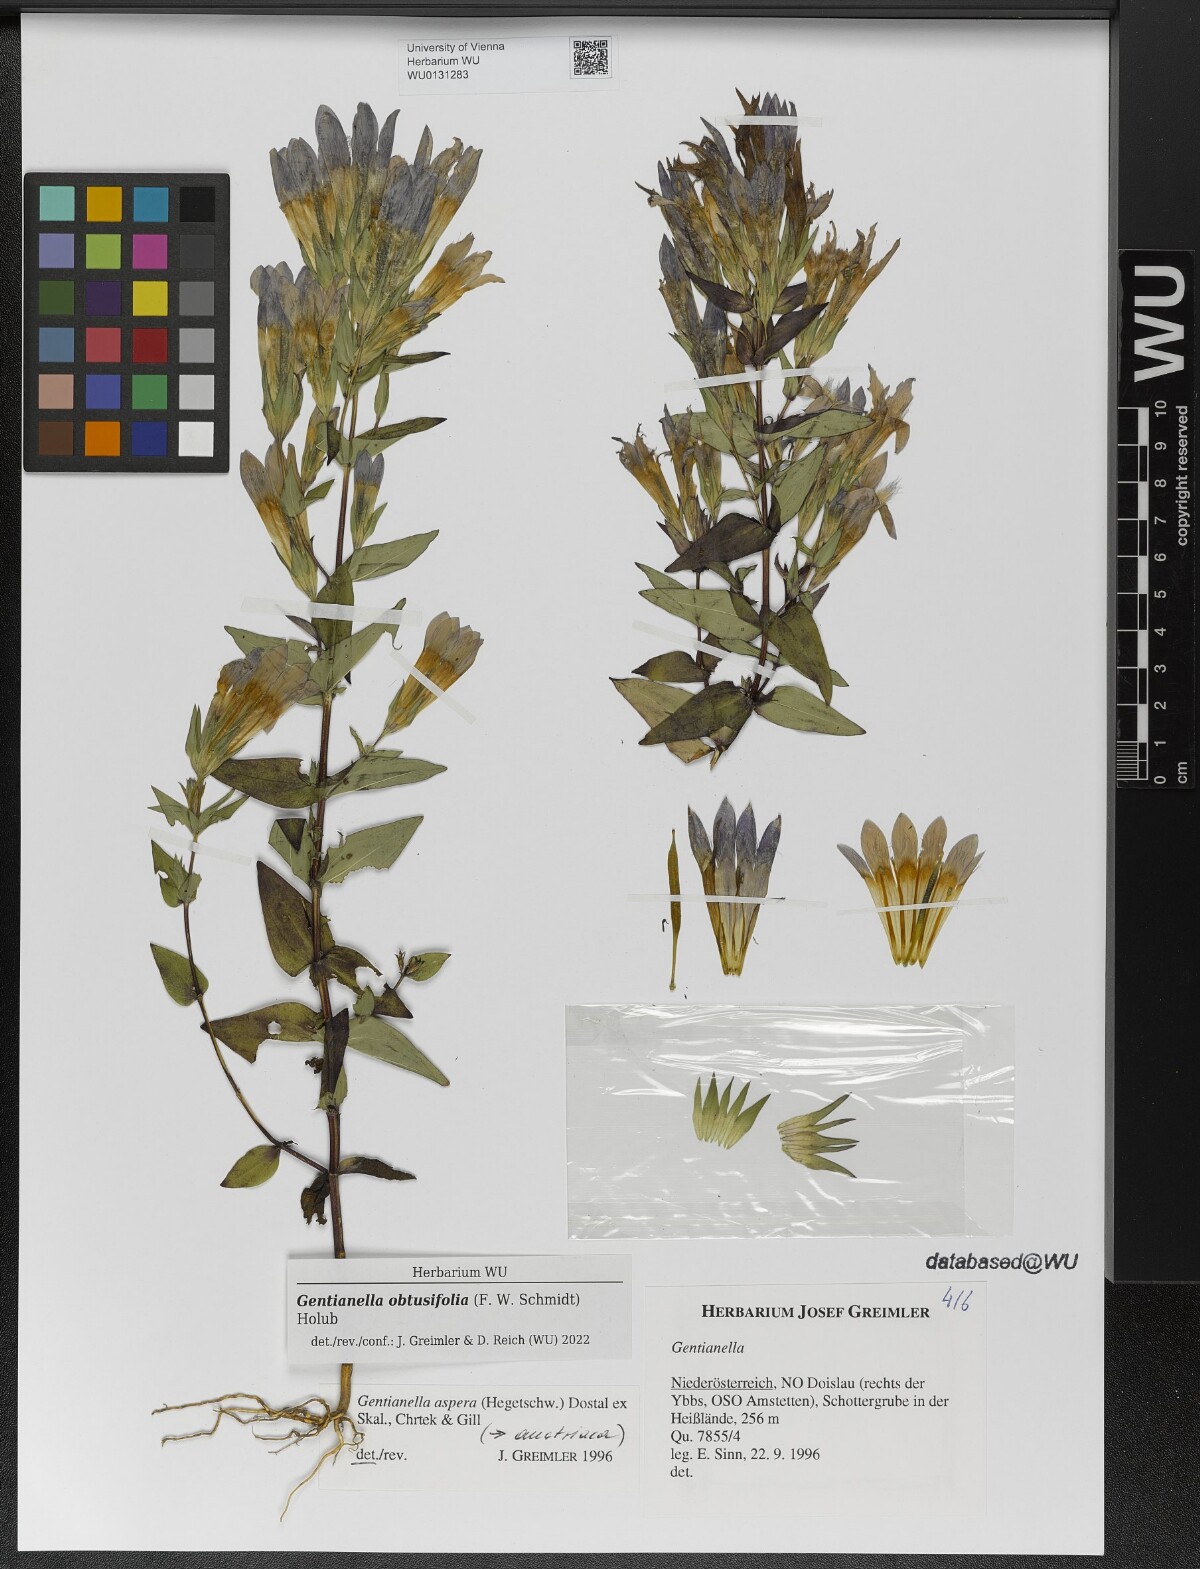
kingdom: Plantae
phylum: Tracheophyta
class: Magnoliopsida
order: Gentianales
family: Gentianaceae
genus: Gentianella
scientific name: Gentianella obtusifolia
